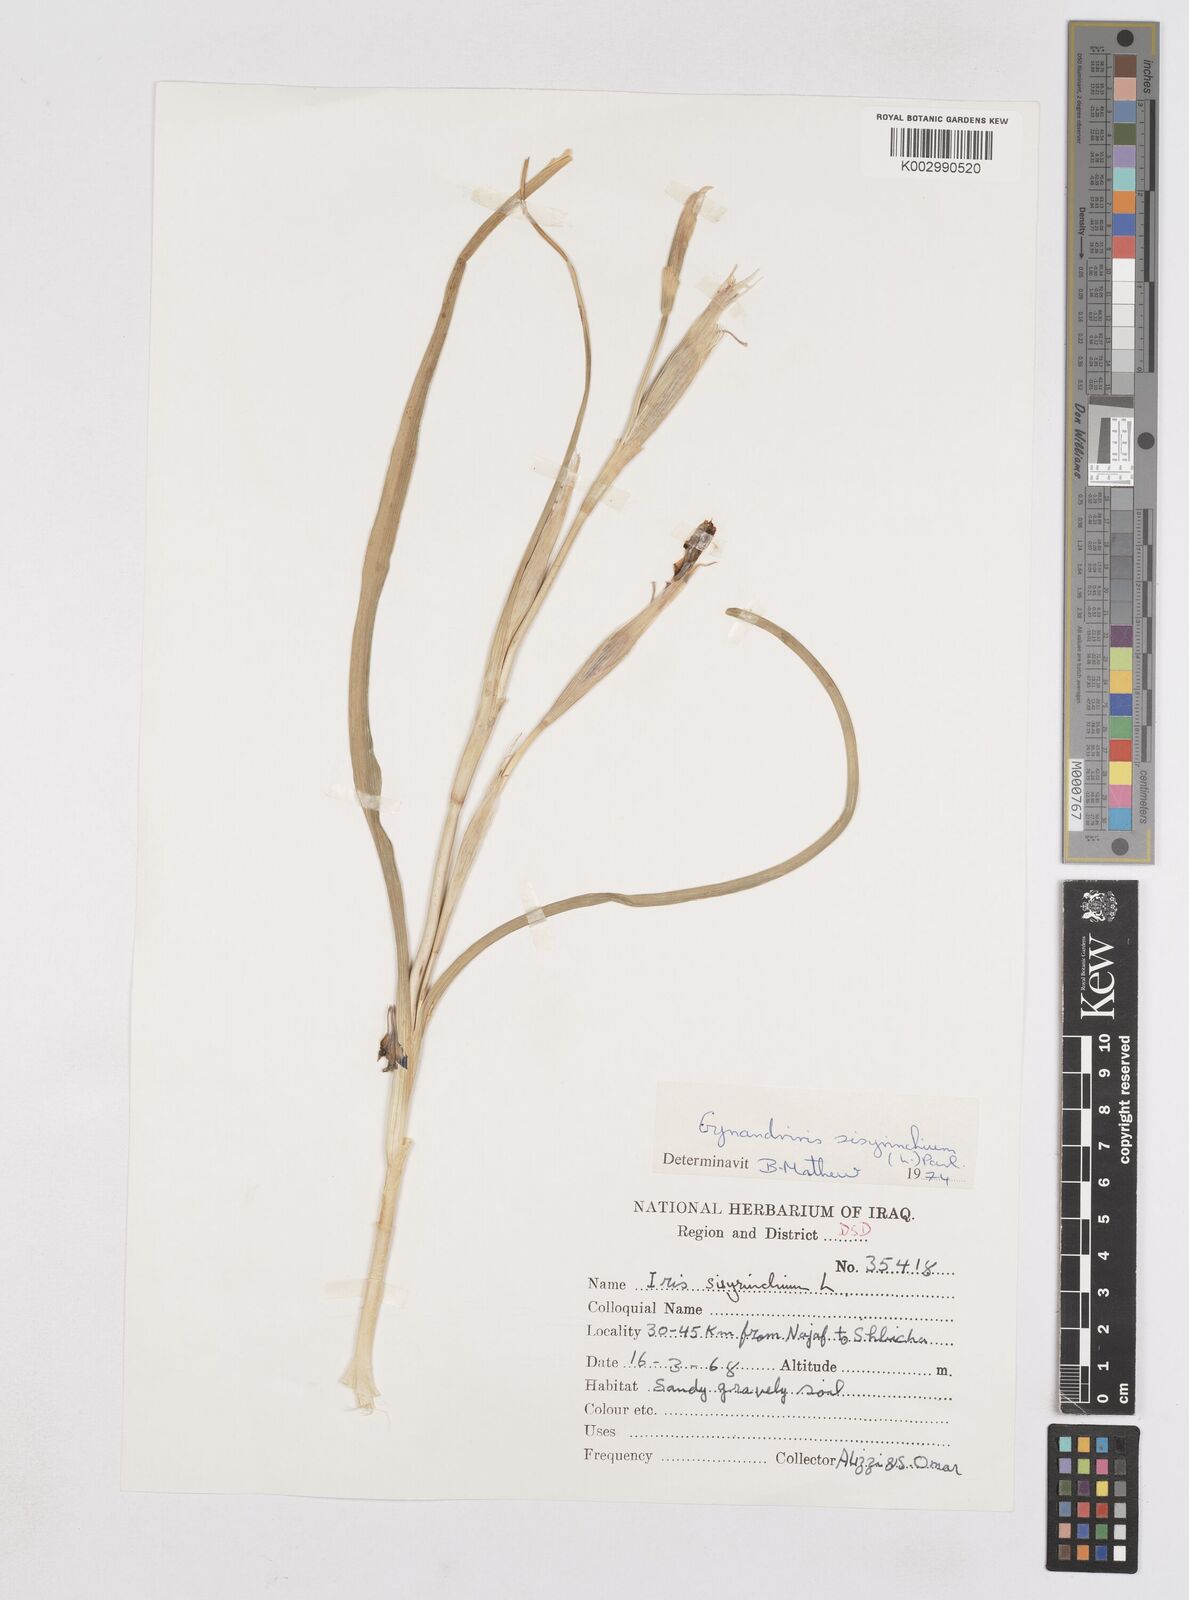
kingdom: Plantae
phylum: Tracheophyta
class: Liliopsida
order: Asparagales
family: Iridaceae
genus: Moraea
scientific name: Moraea sisyrinchium
